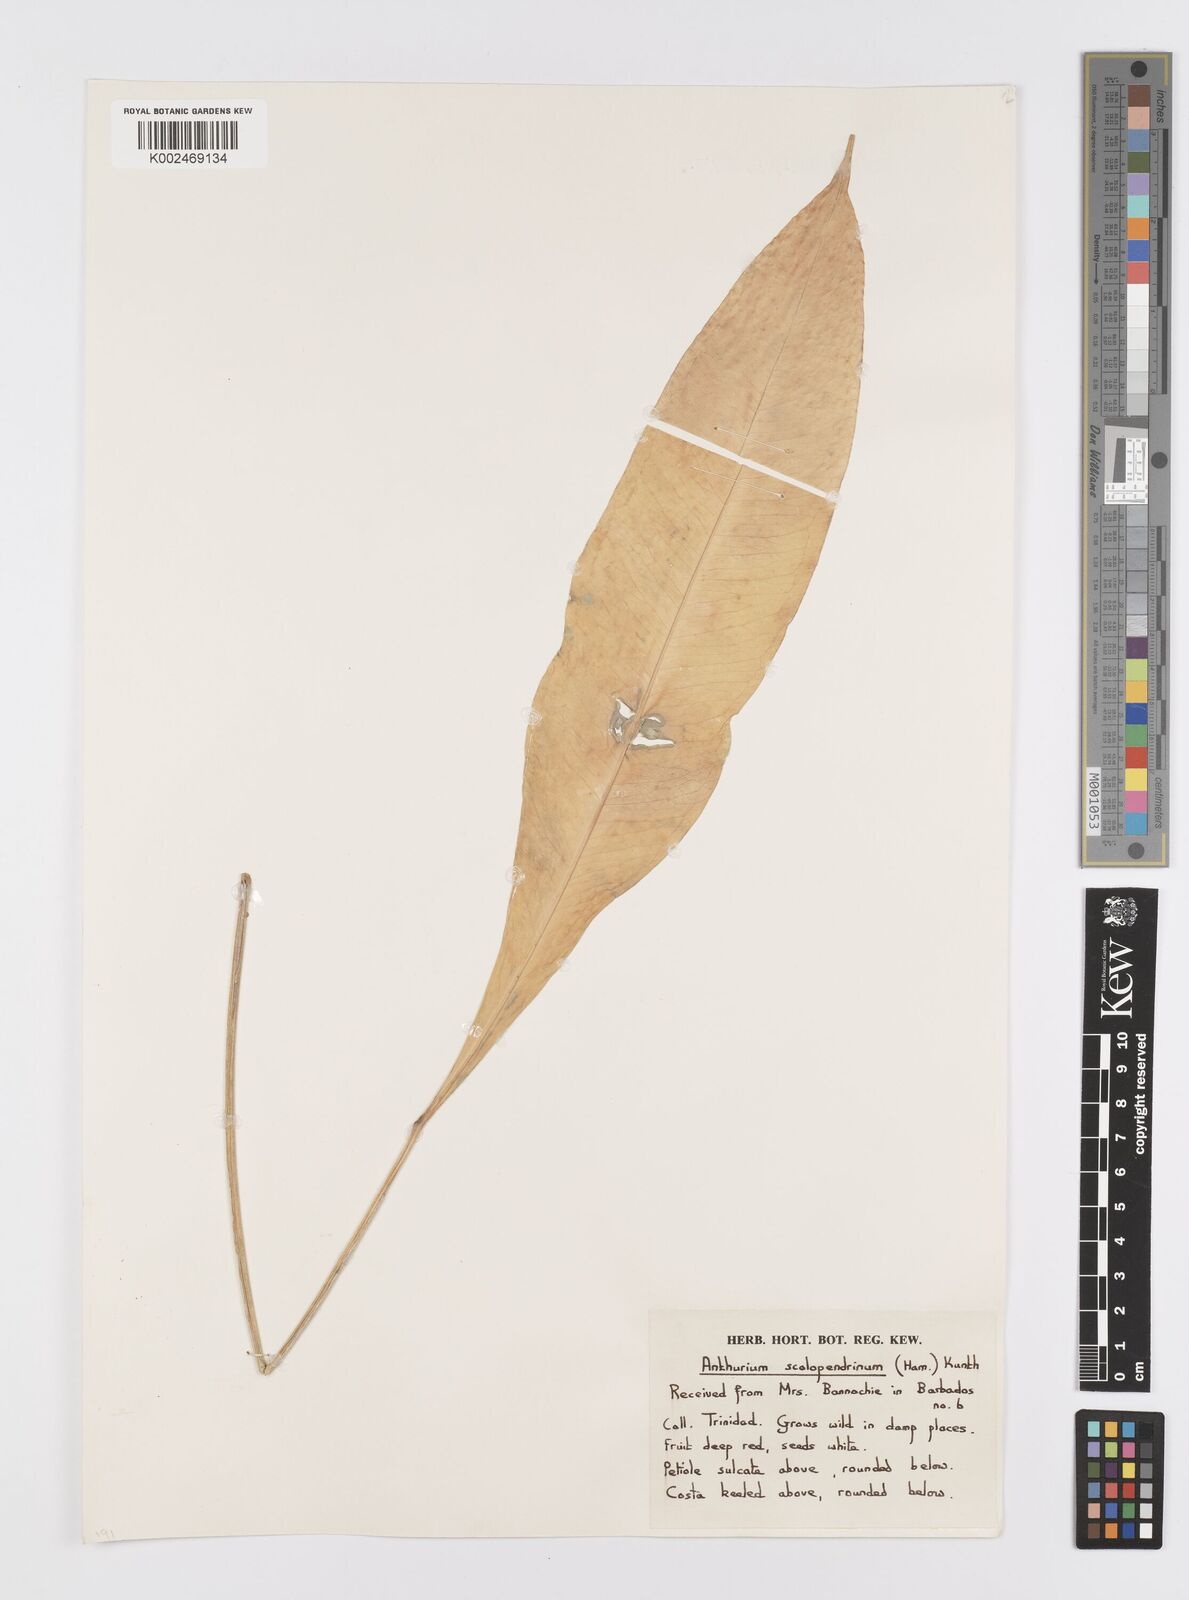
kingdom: Plantae
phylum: Tracheophyta
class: Liliopsida
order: Alismatales
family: Araceae
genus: Anthurium
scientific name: Anthurium gracile
